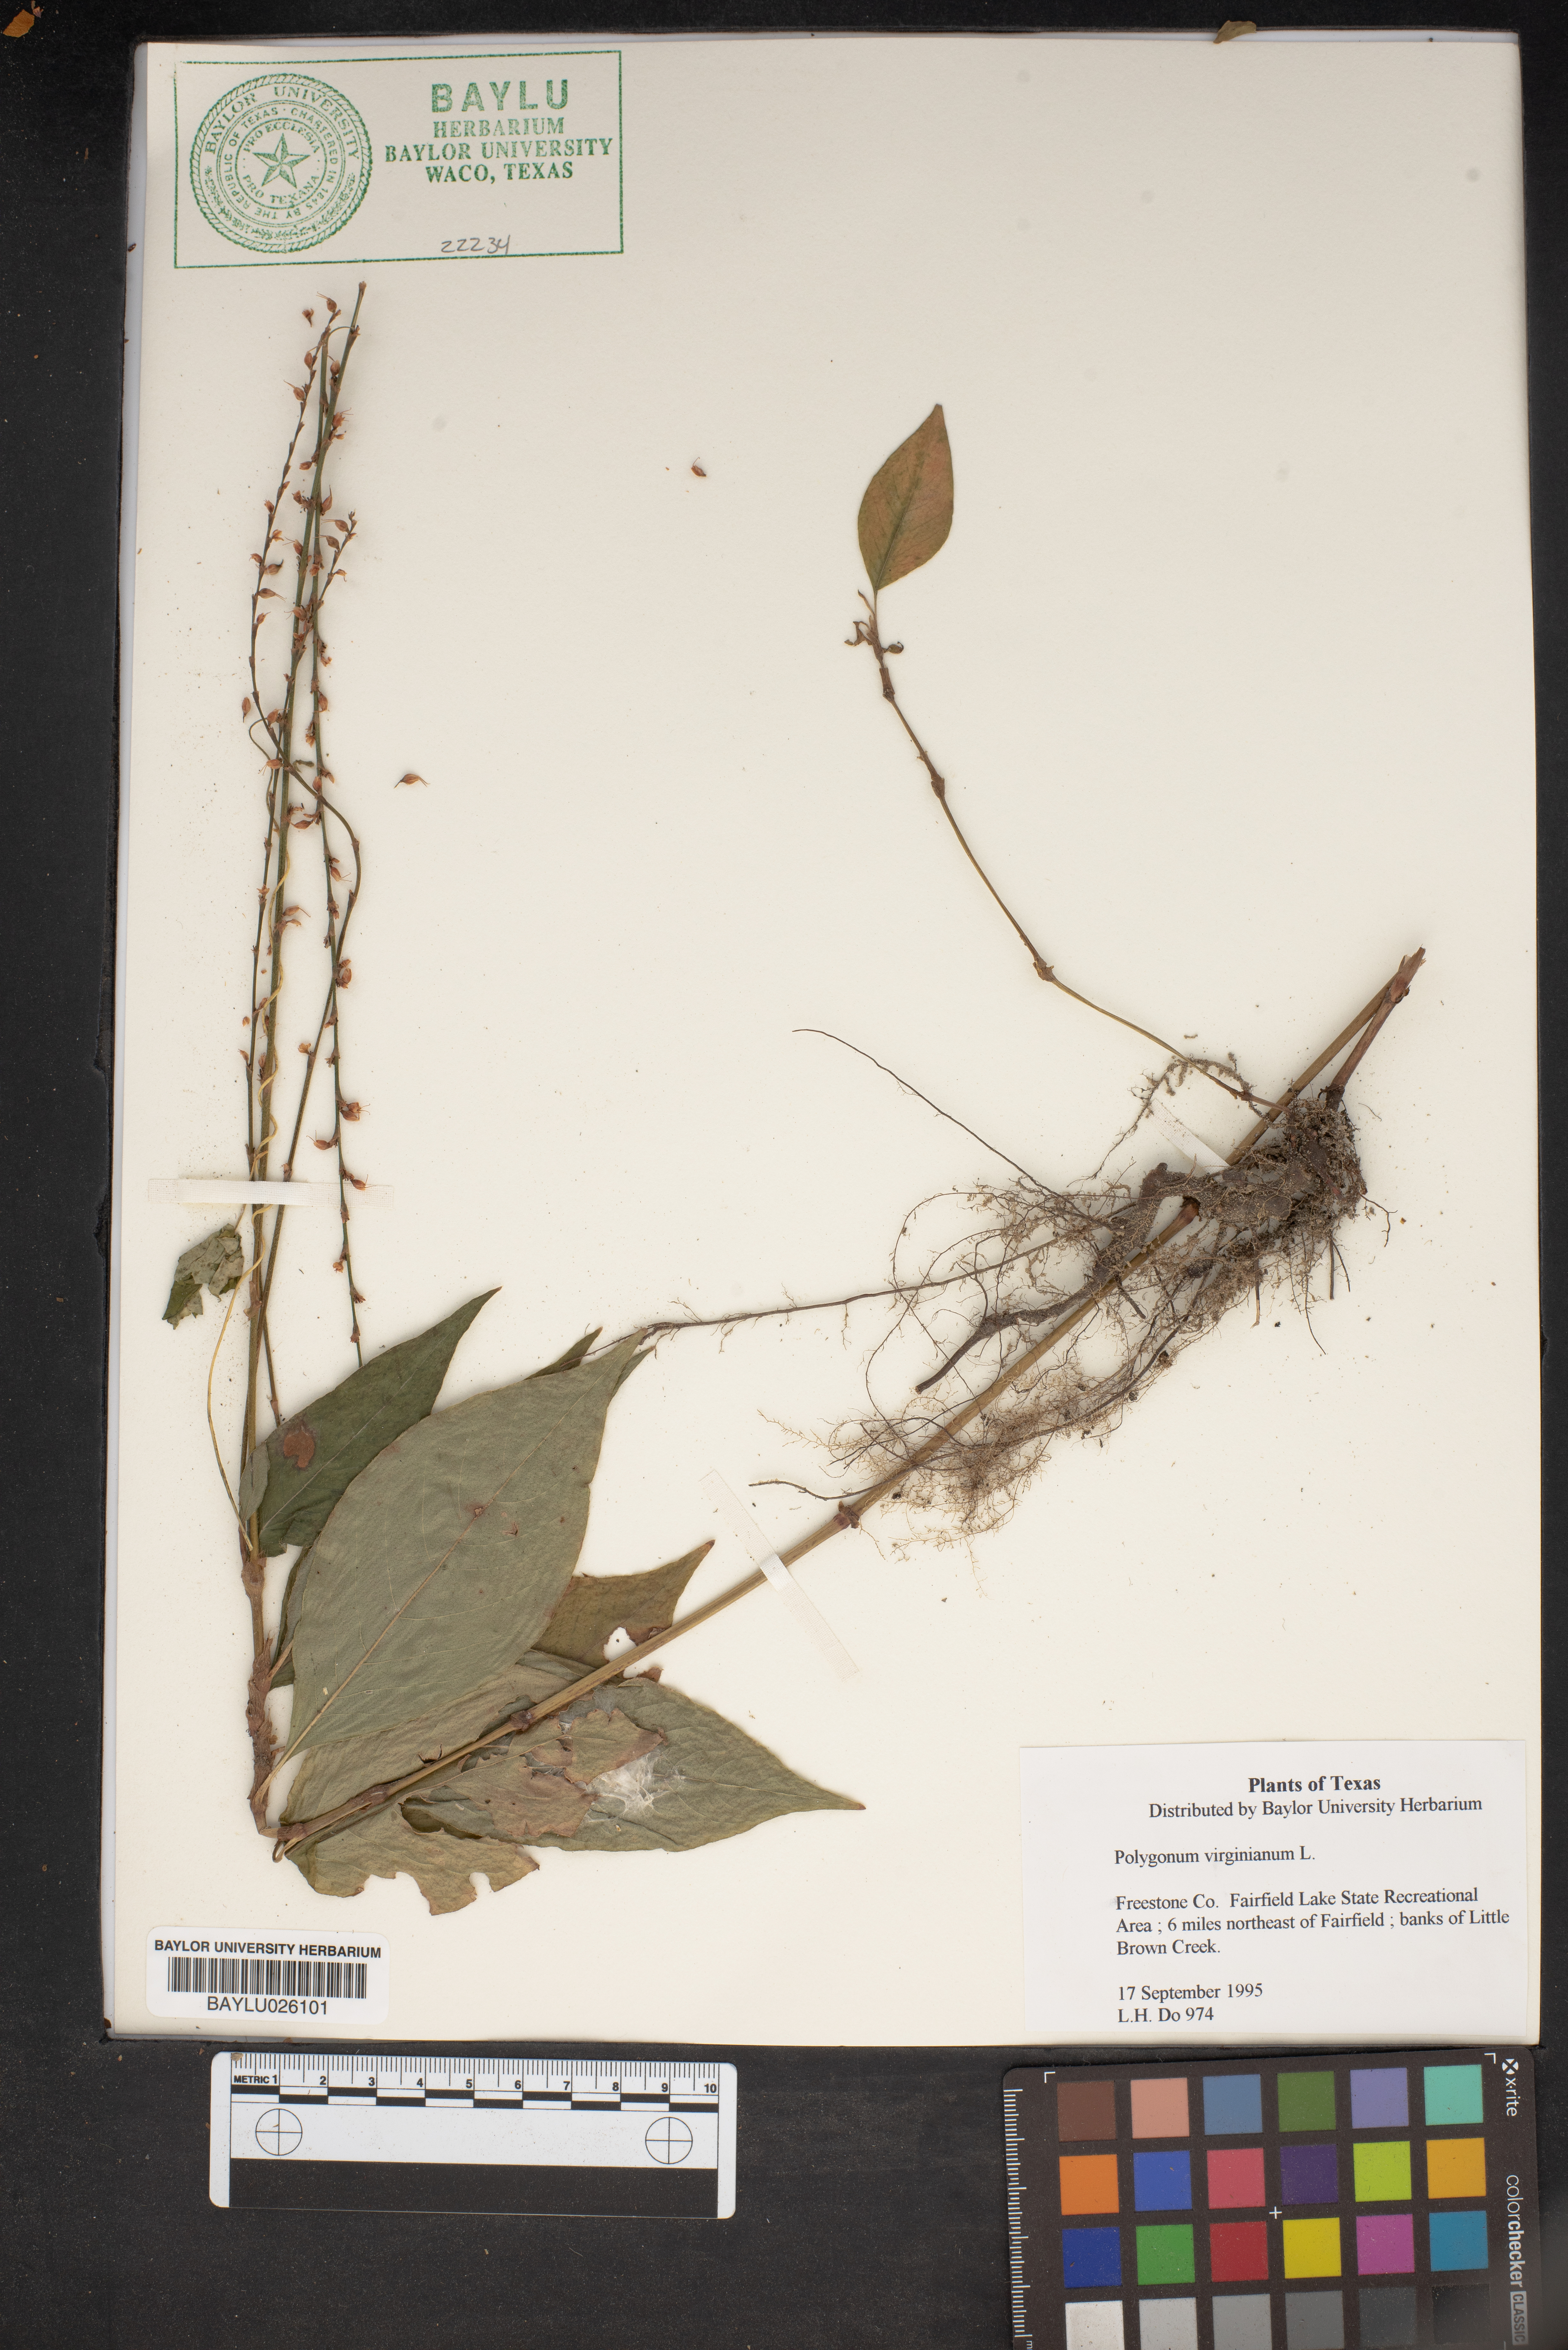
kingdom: Plantae
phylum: Tracheophyta
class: Magnoliopsida
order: Caryophyllales
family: Polygonaceae
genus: Persicaria
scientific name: Persicaria virginiana
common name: Jumpseed
